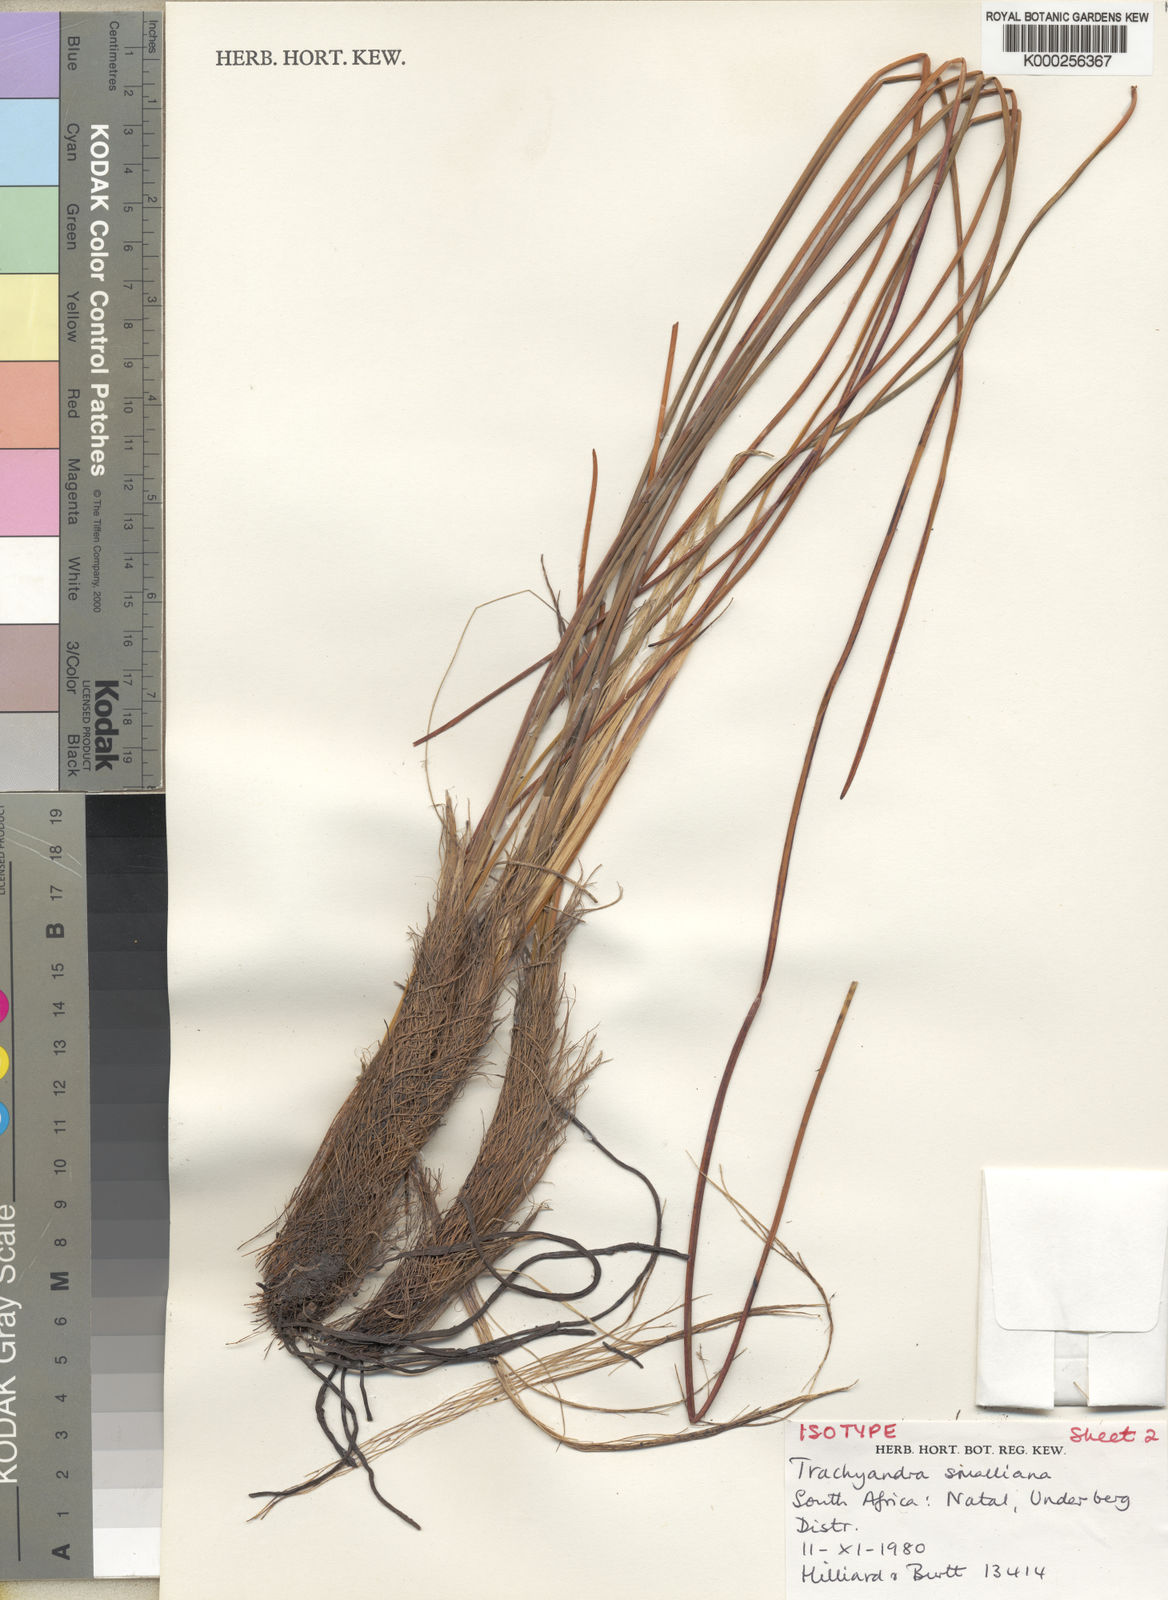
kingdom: Plantae
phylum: Tracheophyta
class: Liliopsida
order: Asparagales
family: Asphodelaceae
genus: Trachyandra
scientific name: Trachyandra smalliana
